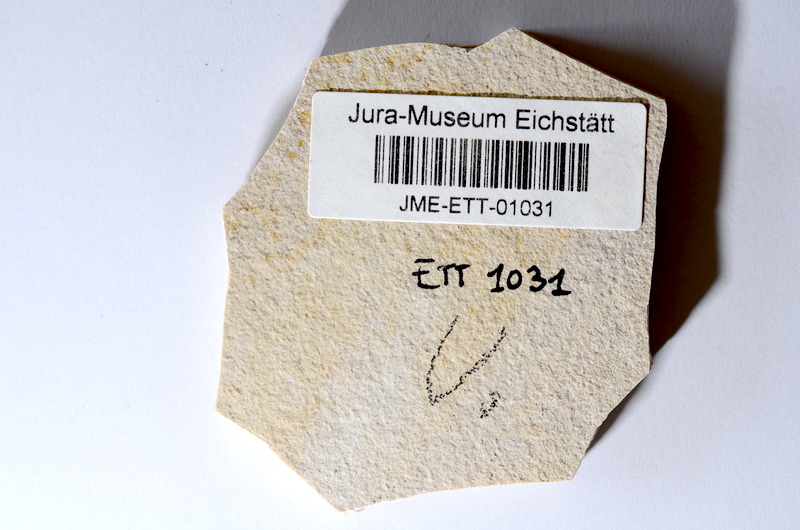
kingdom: Animalia
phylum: Chordata
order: Salmoniformes
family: Orthogonikleithridae
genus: Orthogonikleithrus
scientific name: Orthogonikleithrus hoelli
